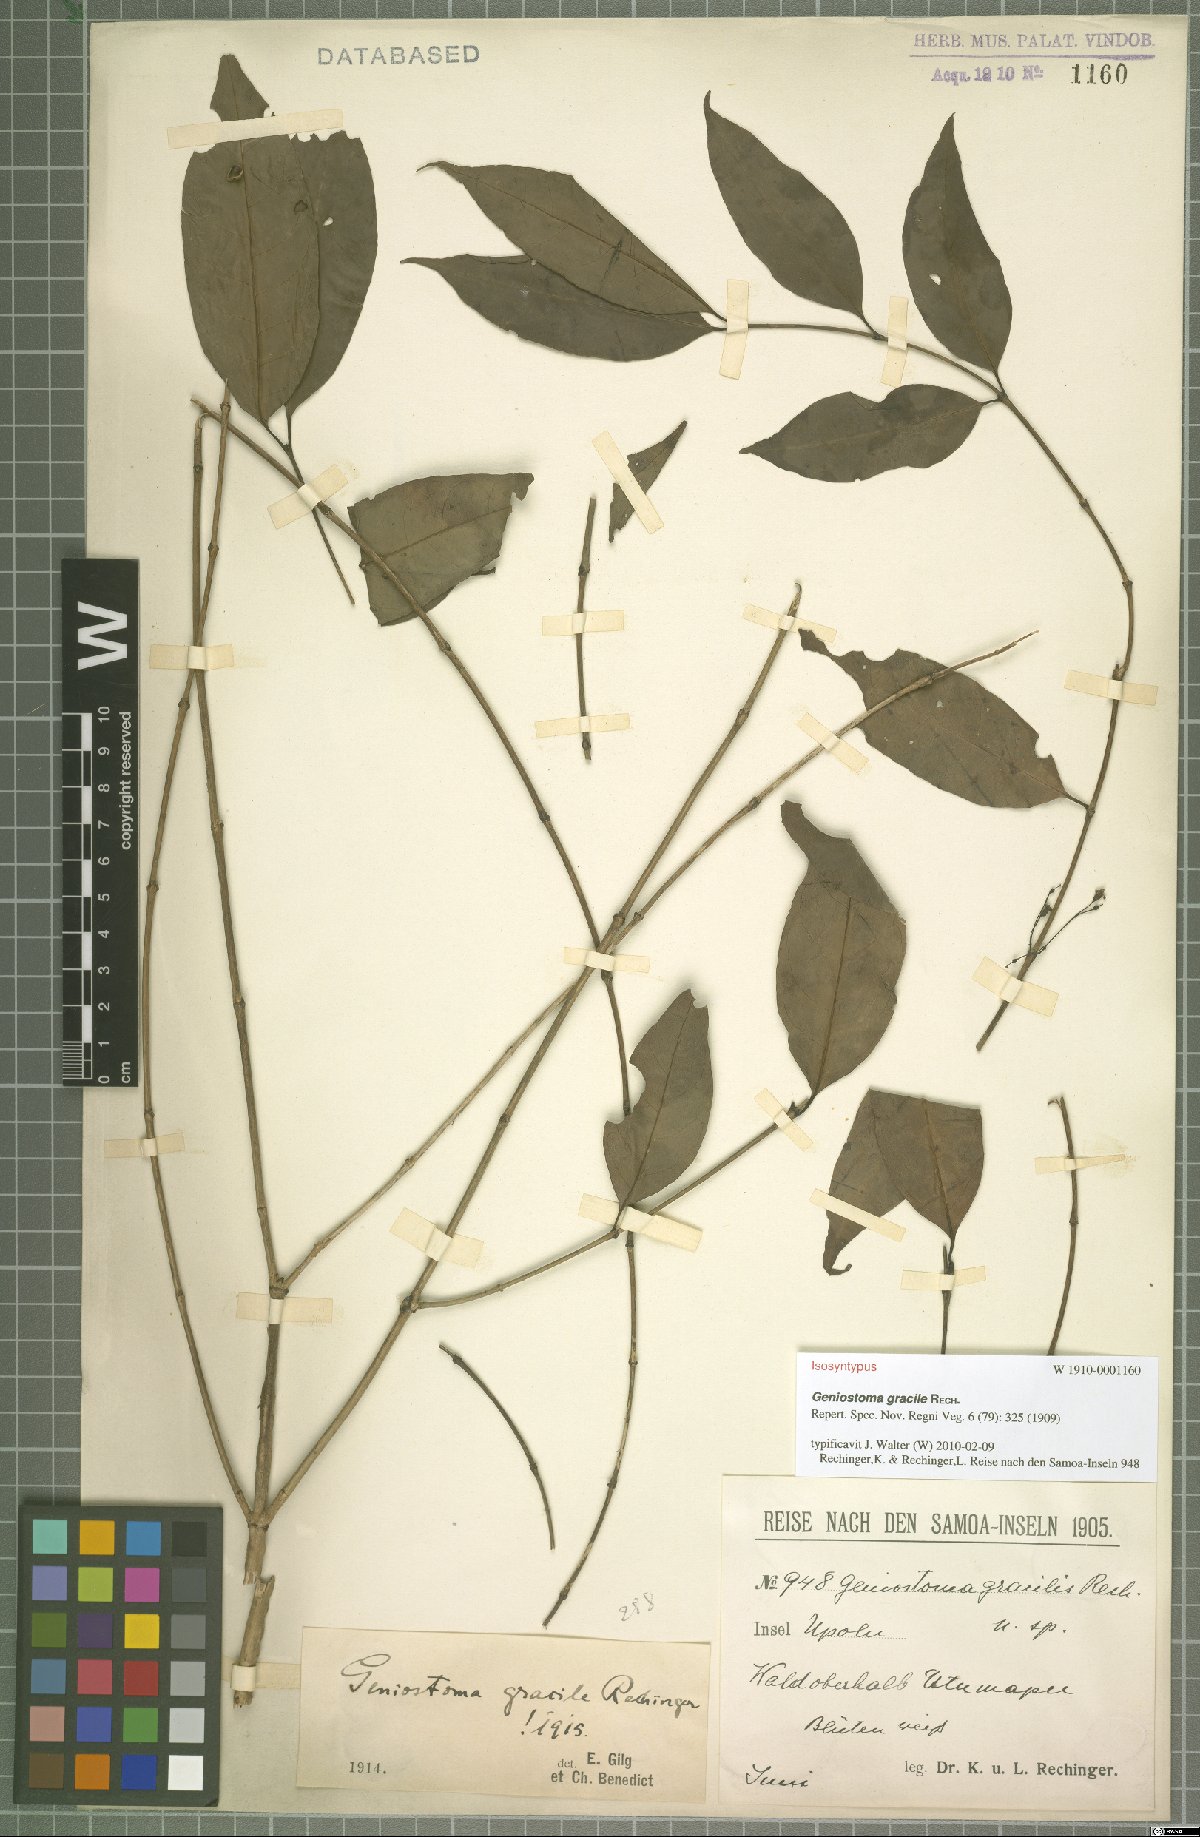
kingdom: Plantae
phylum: Tracheophyta
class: Magnoliopsida
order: Gentianales
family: Loganiaceae
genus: Geniostoma
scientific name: Geniostoma rupestre
